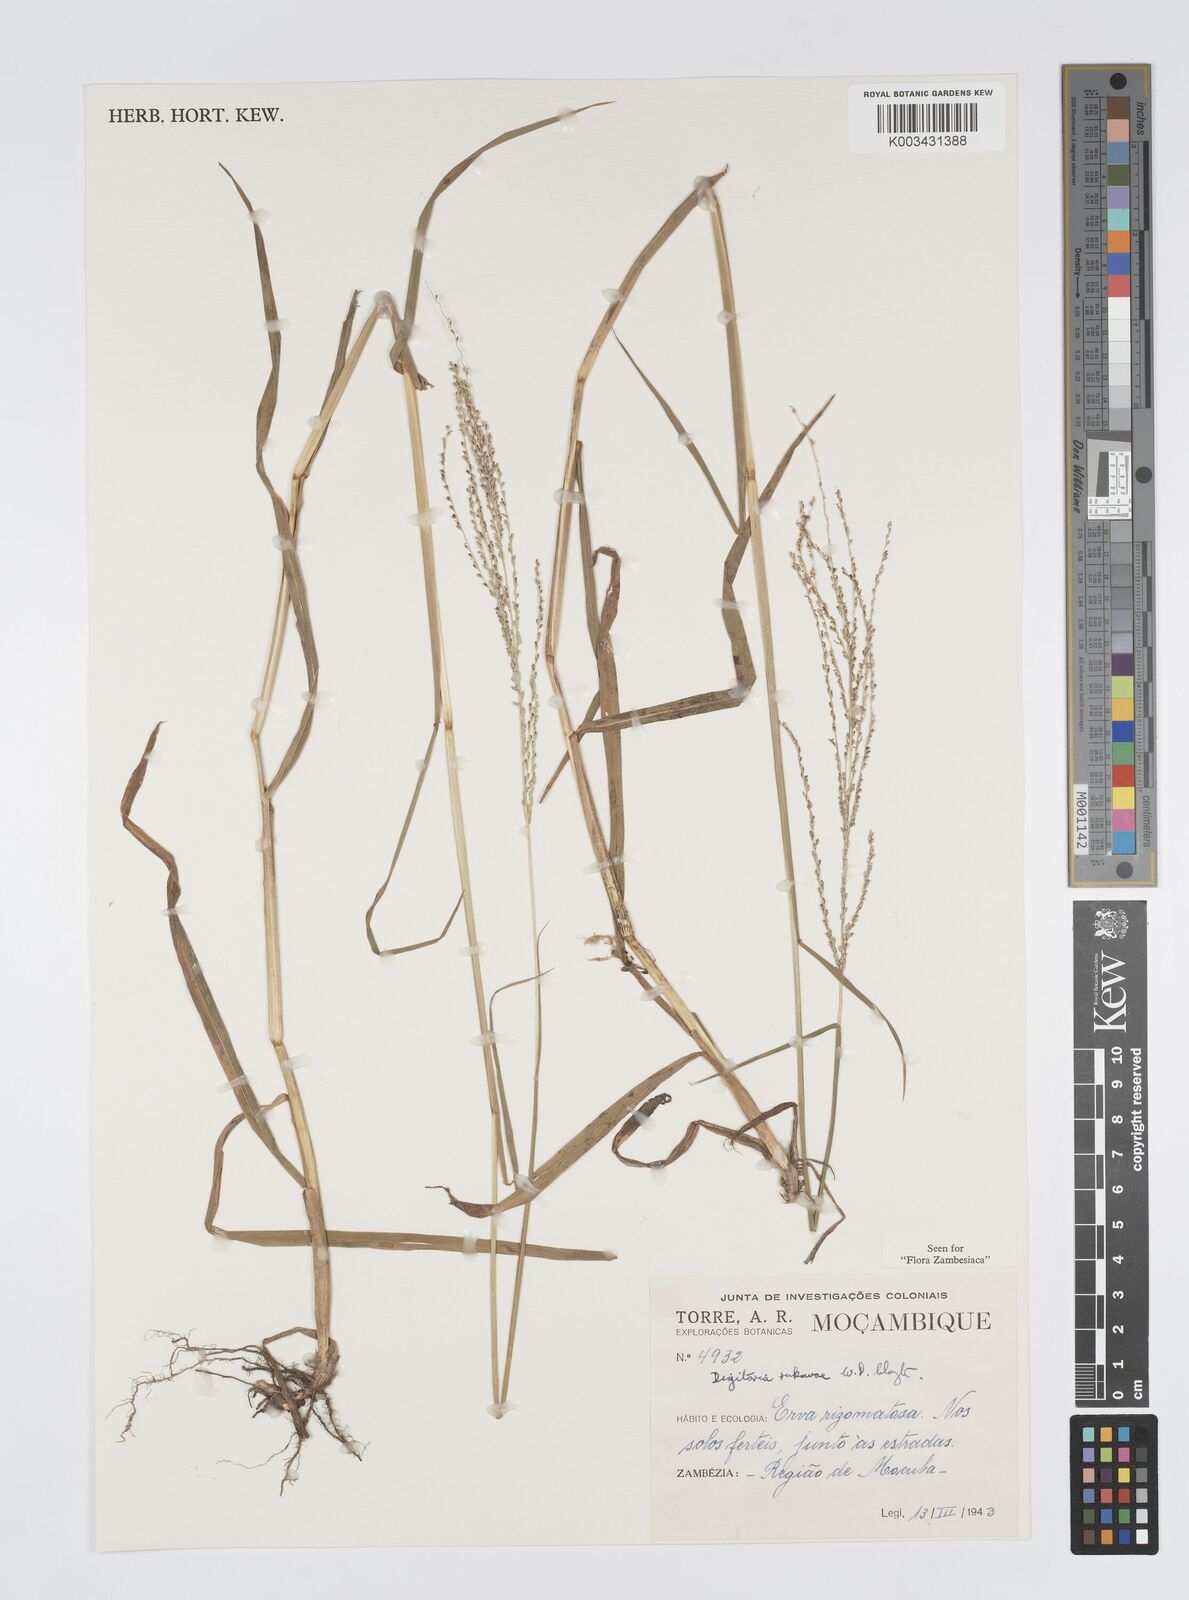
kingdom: Plantae
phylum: Tracheophyta
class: Liliopsida
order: Poales
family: Poaceae
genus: Digitaria
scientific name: Digitaria rukwae
